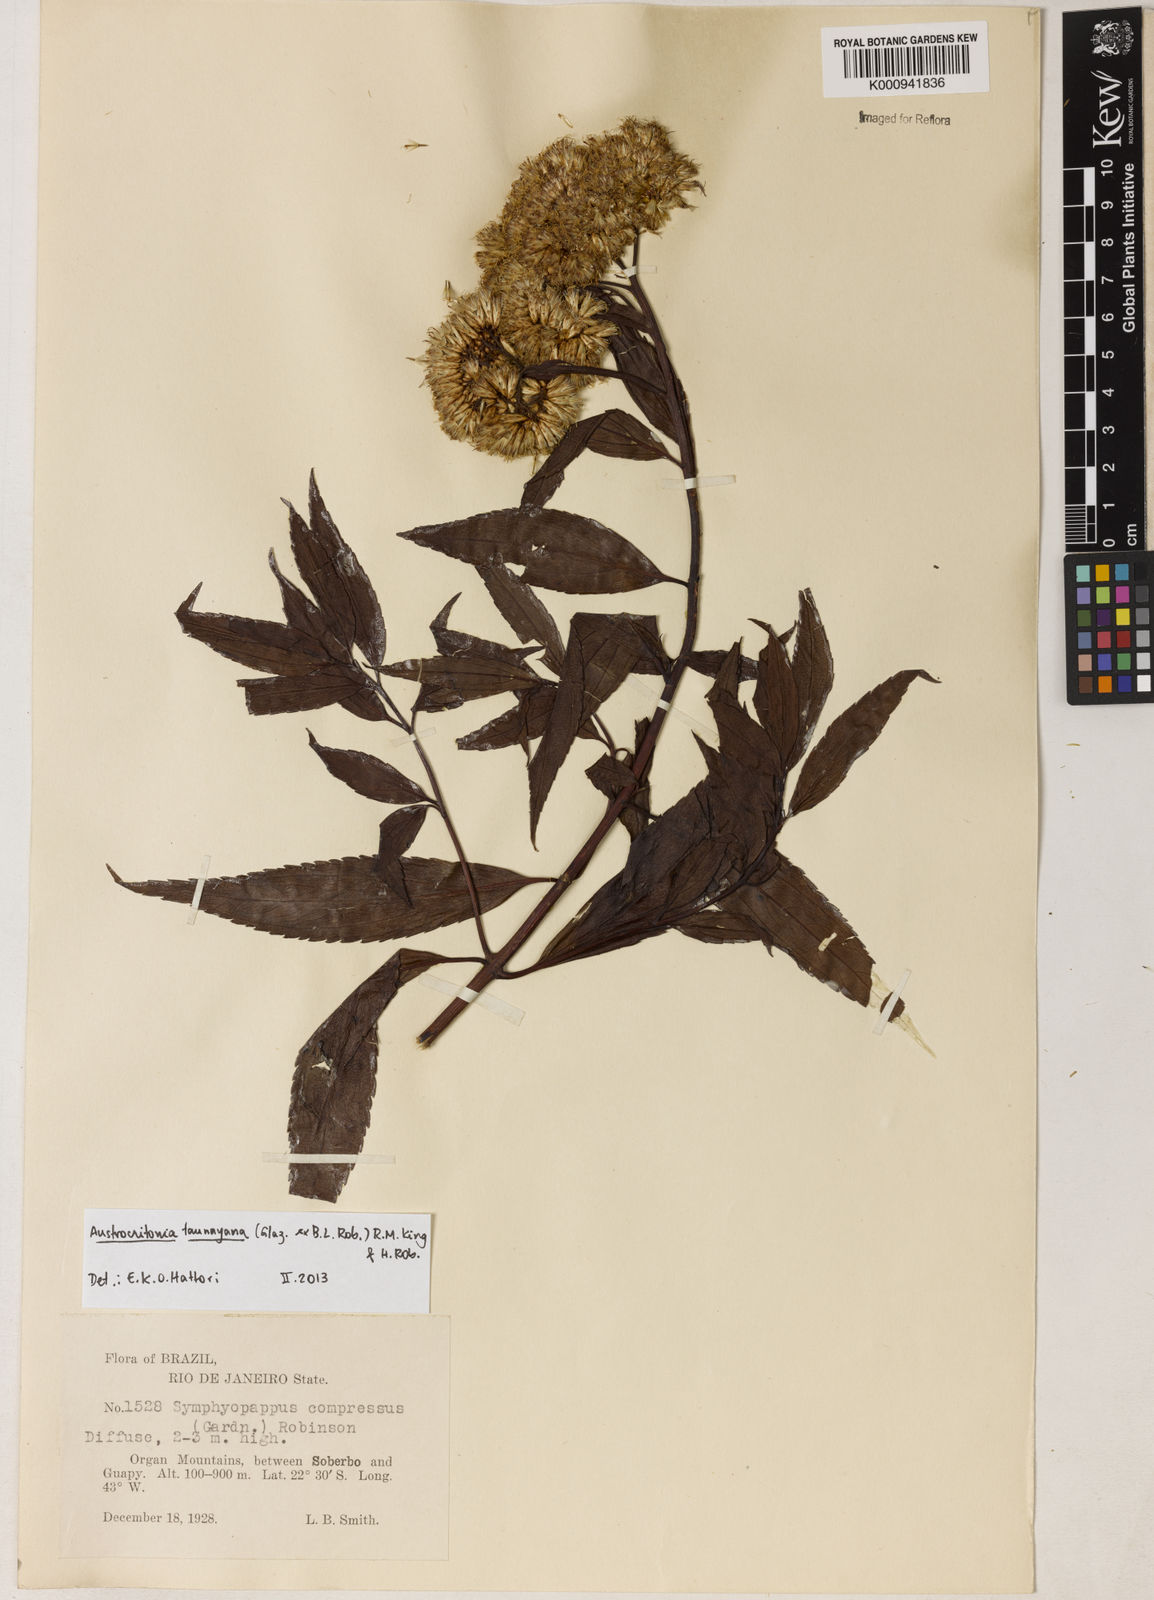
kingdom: Plantae
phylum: Tracheophyta
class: Magnoliopsida
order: Asterales
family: Asteraceae
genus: Austrocritonia
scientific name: Austrocritonia taunayana
